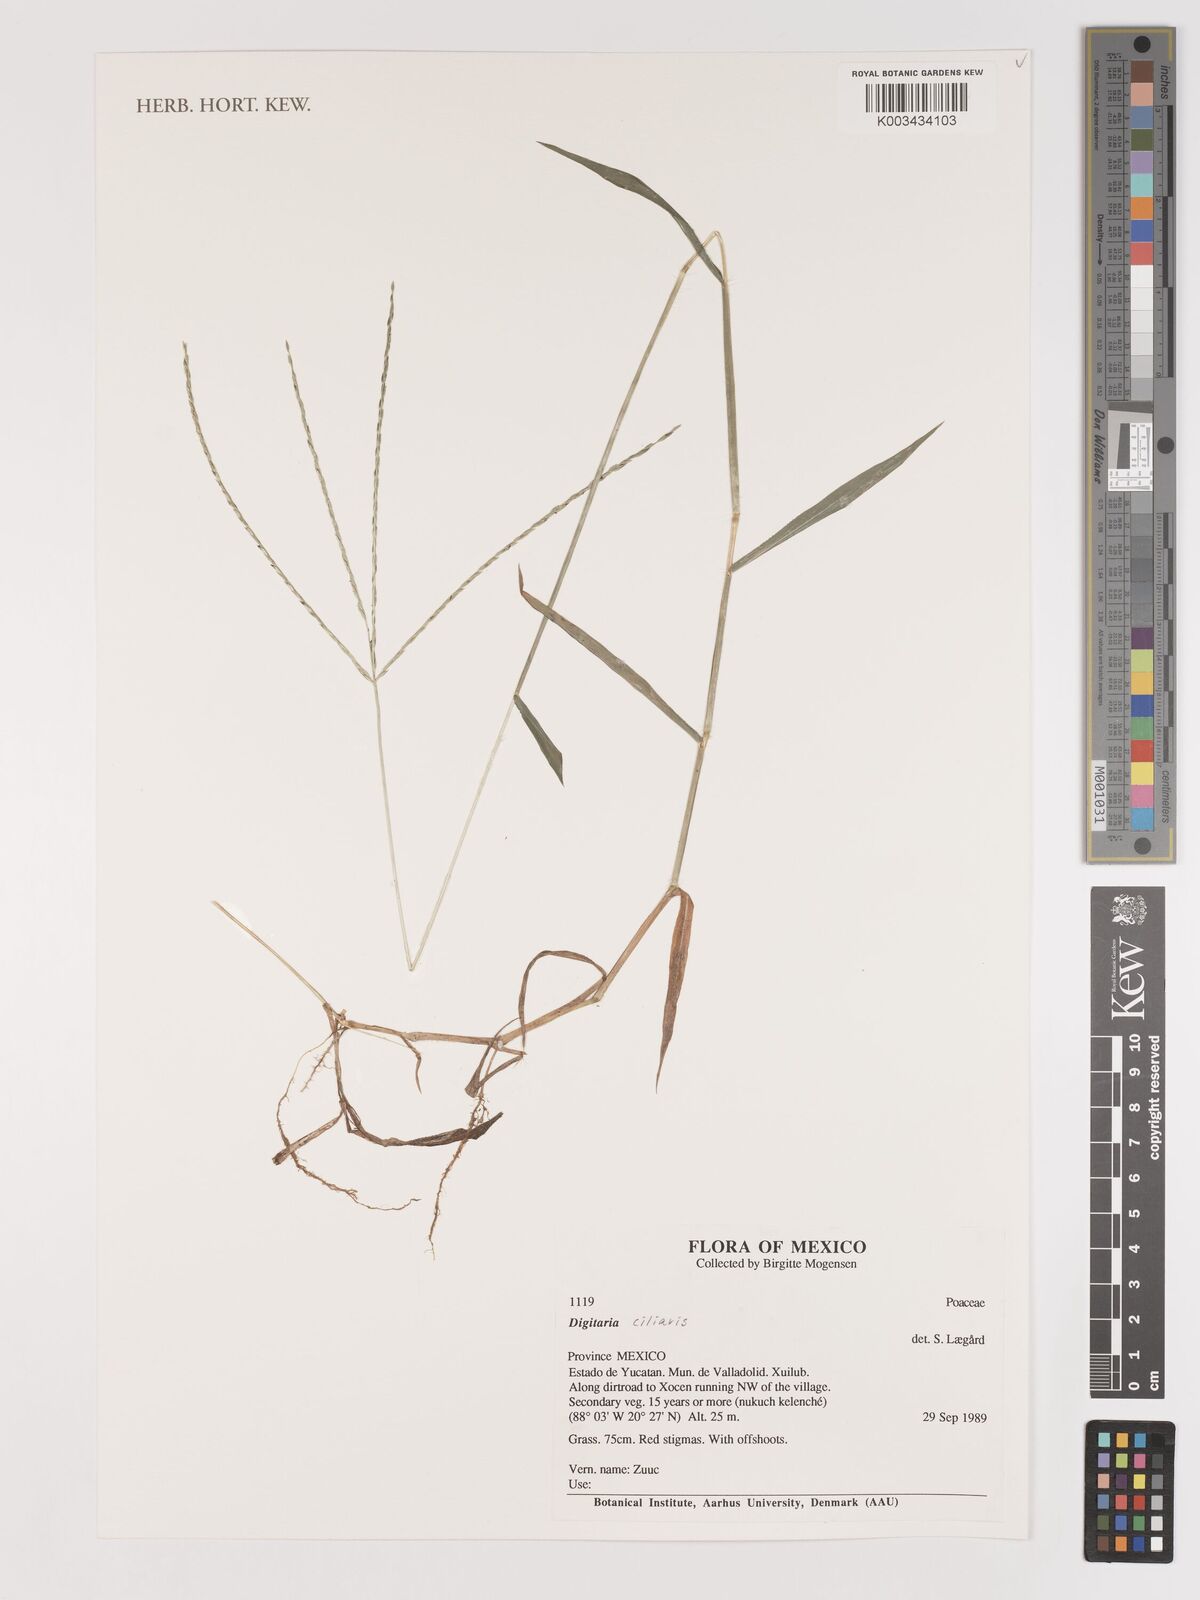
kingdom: Plantae
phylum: Tracheophyta
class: Liliopsida
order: Poales
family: Poaceae
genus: Digitaria
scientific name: Digitaria ciliaris
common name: Tropical finger-grass
